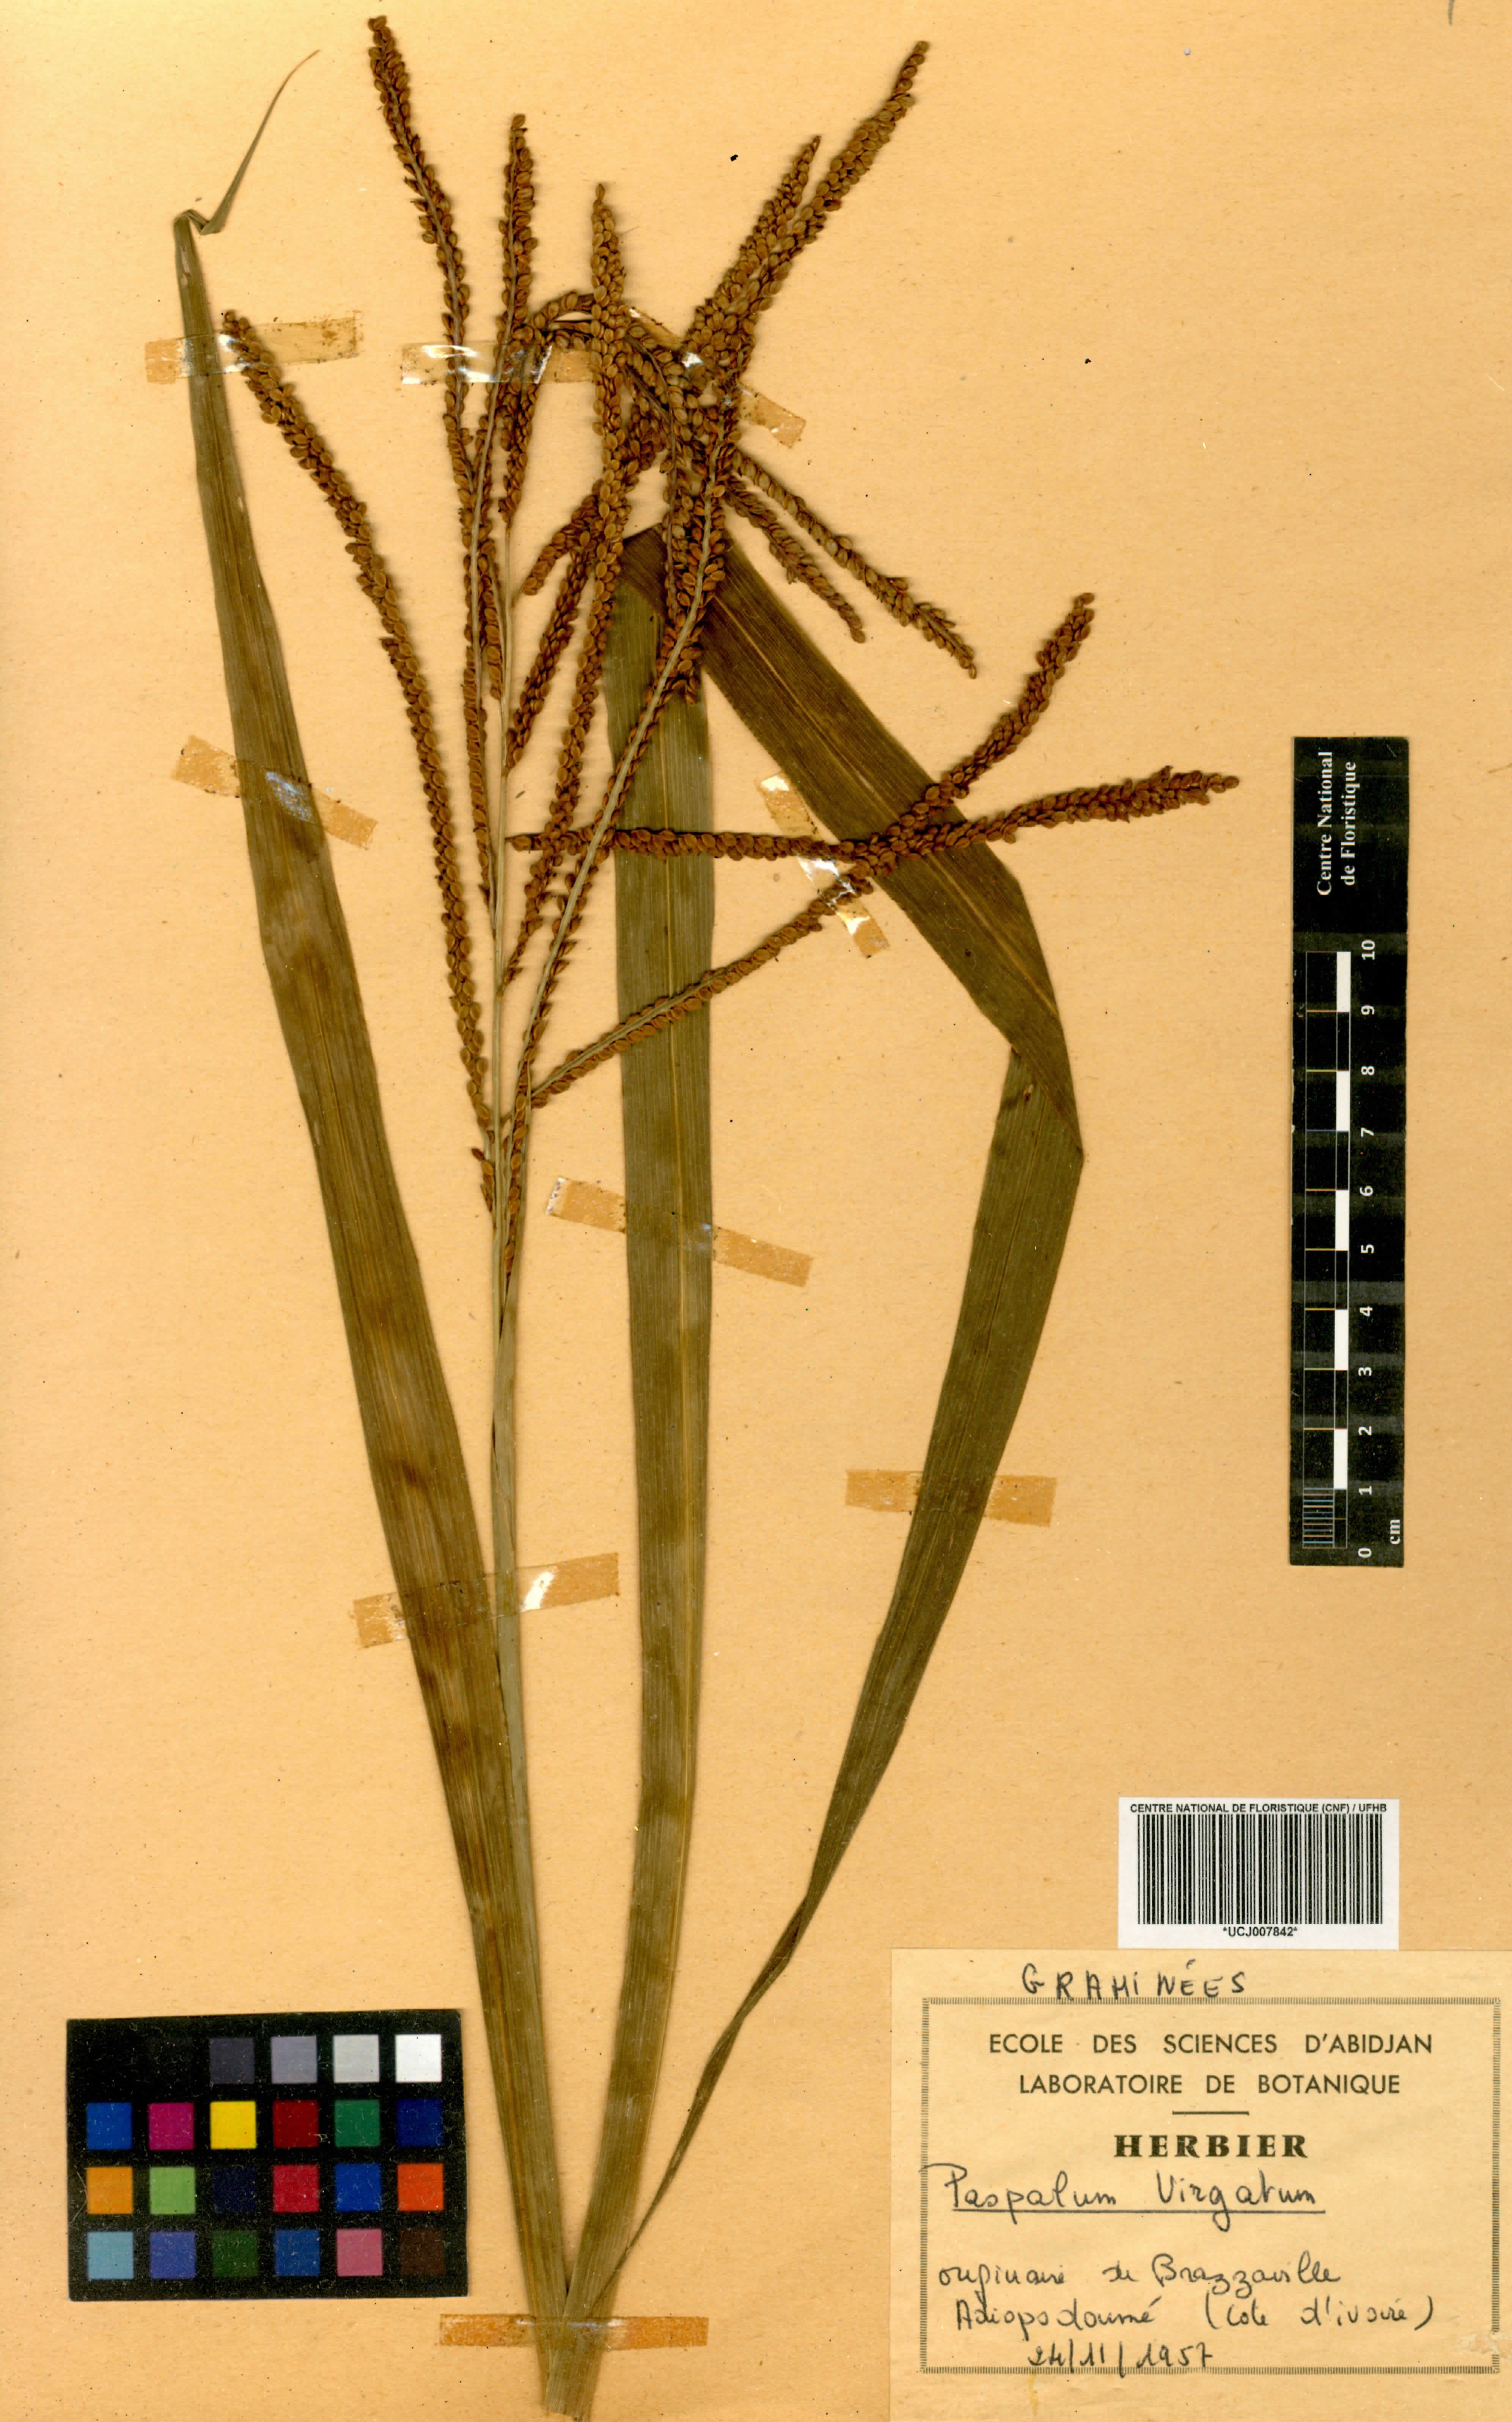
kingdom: Plantae
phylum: Tracheophyta
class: Liliopsida
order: Poales
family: Poaceae
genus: Paspalum
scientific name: Paspalum vaginatum
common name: Seashore paspalum
